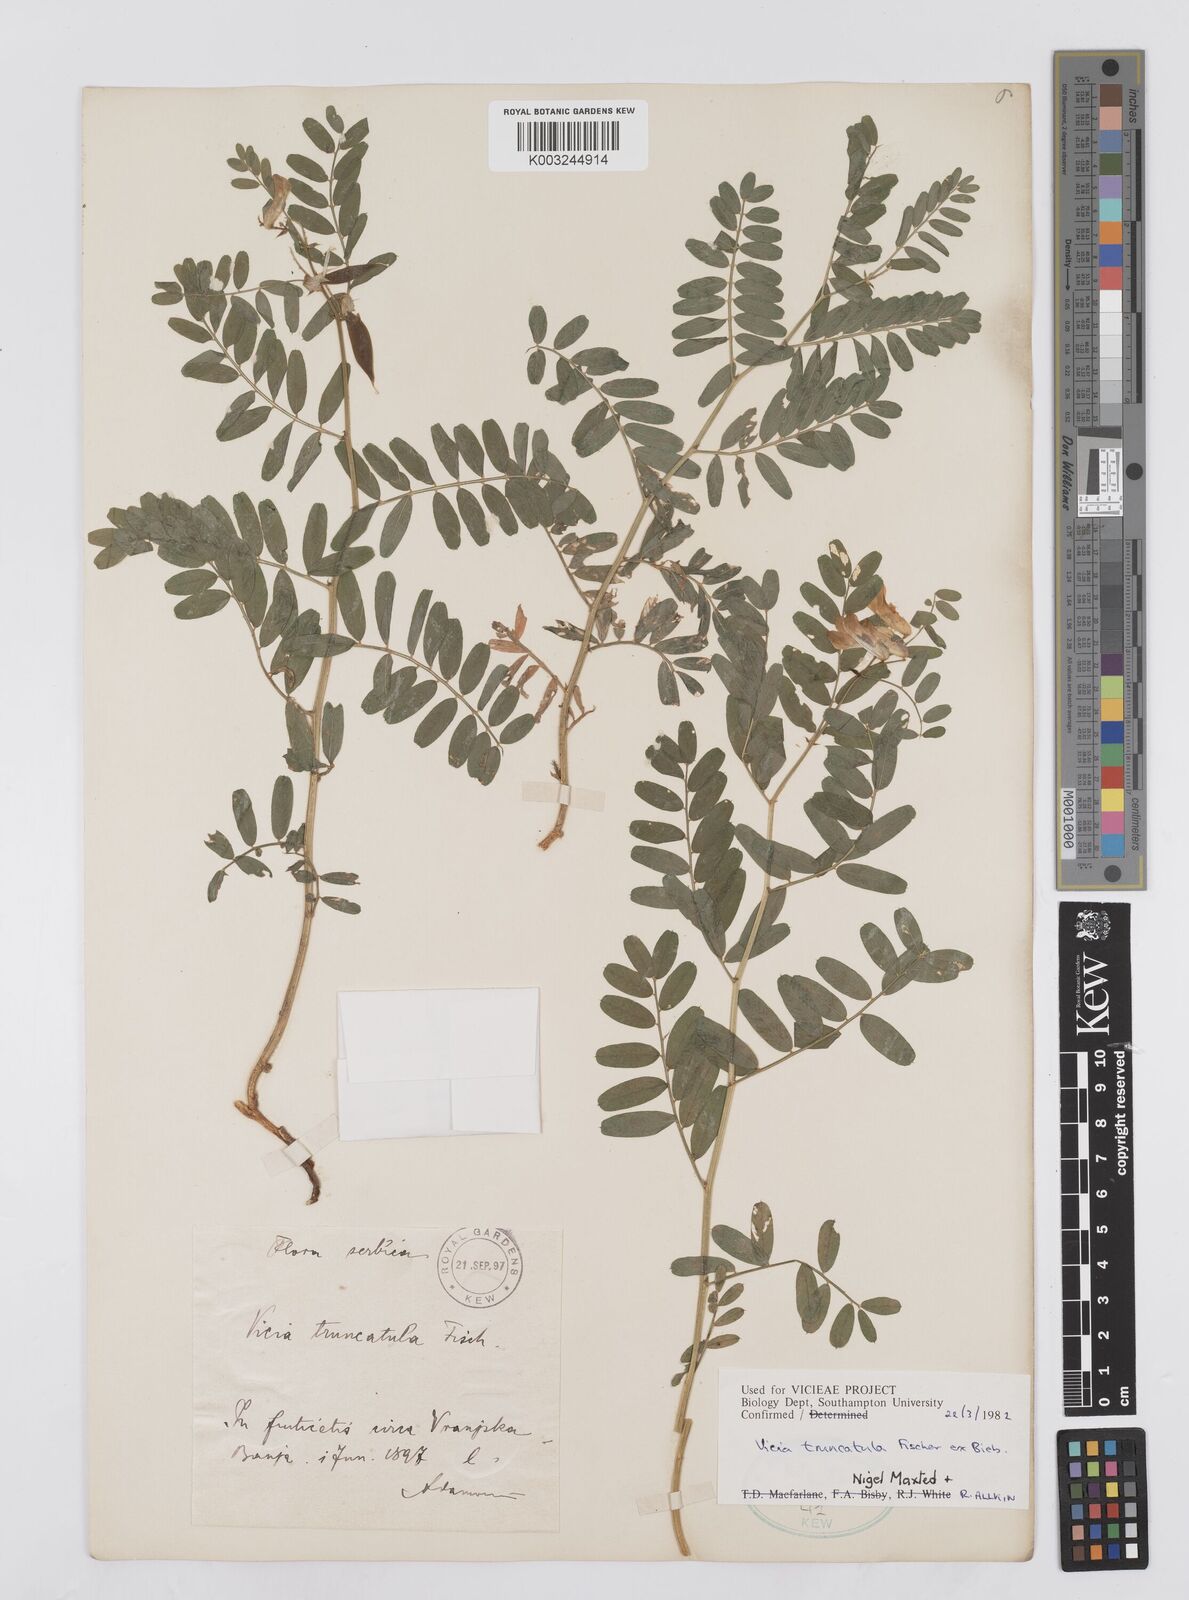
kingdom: Plantae
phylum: Tracheophyta
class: Magnoliopsida
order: Fabales
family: Fabaceae
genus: Vicia
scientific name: Vicia abbreviata
